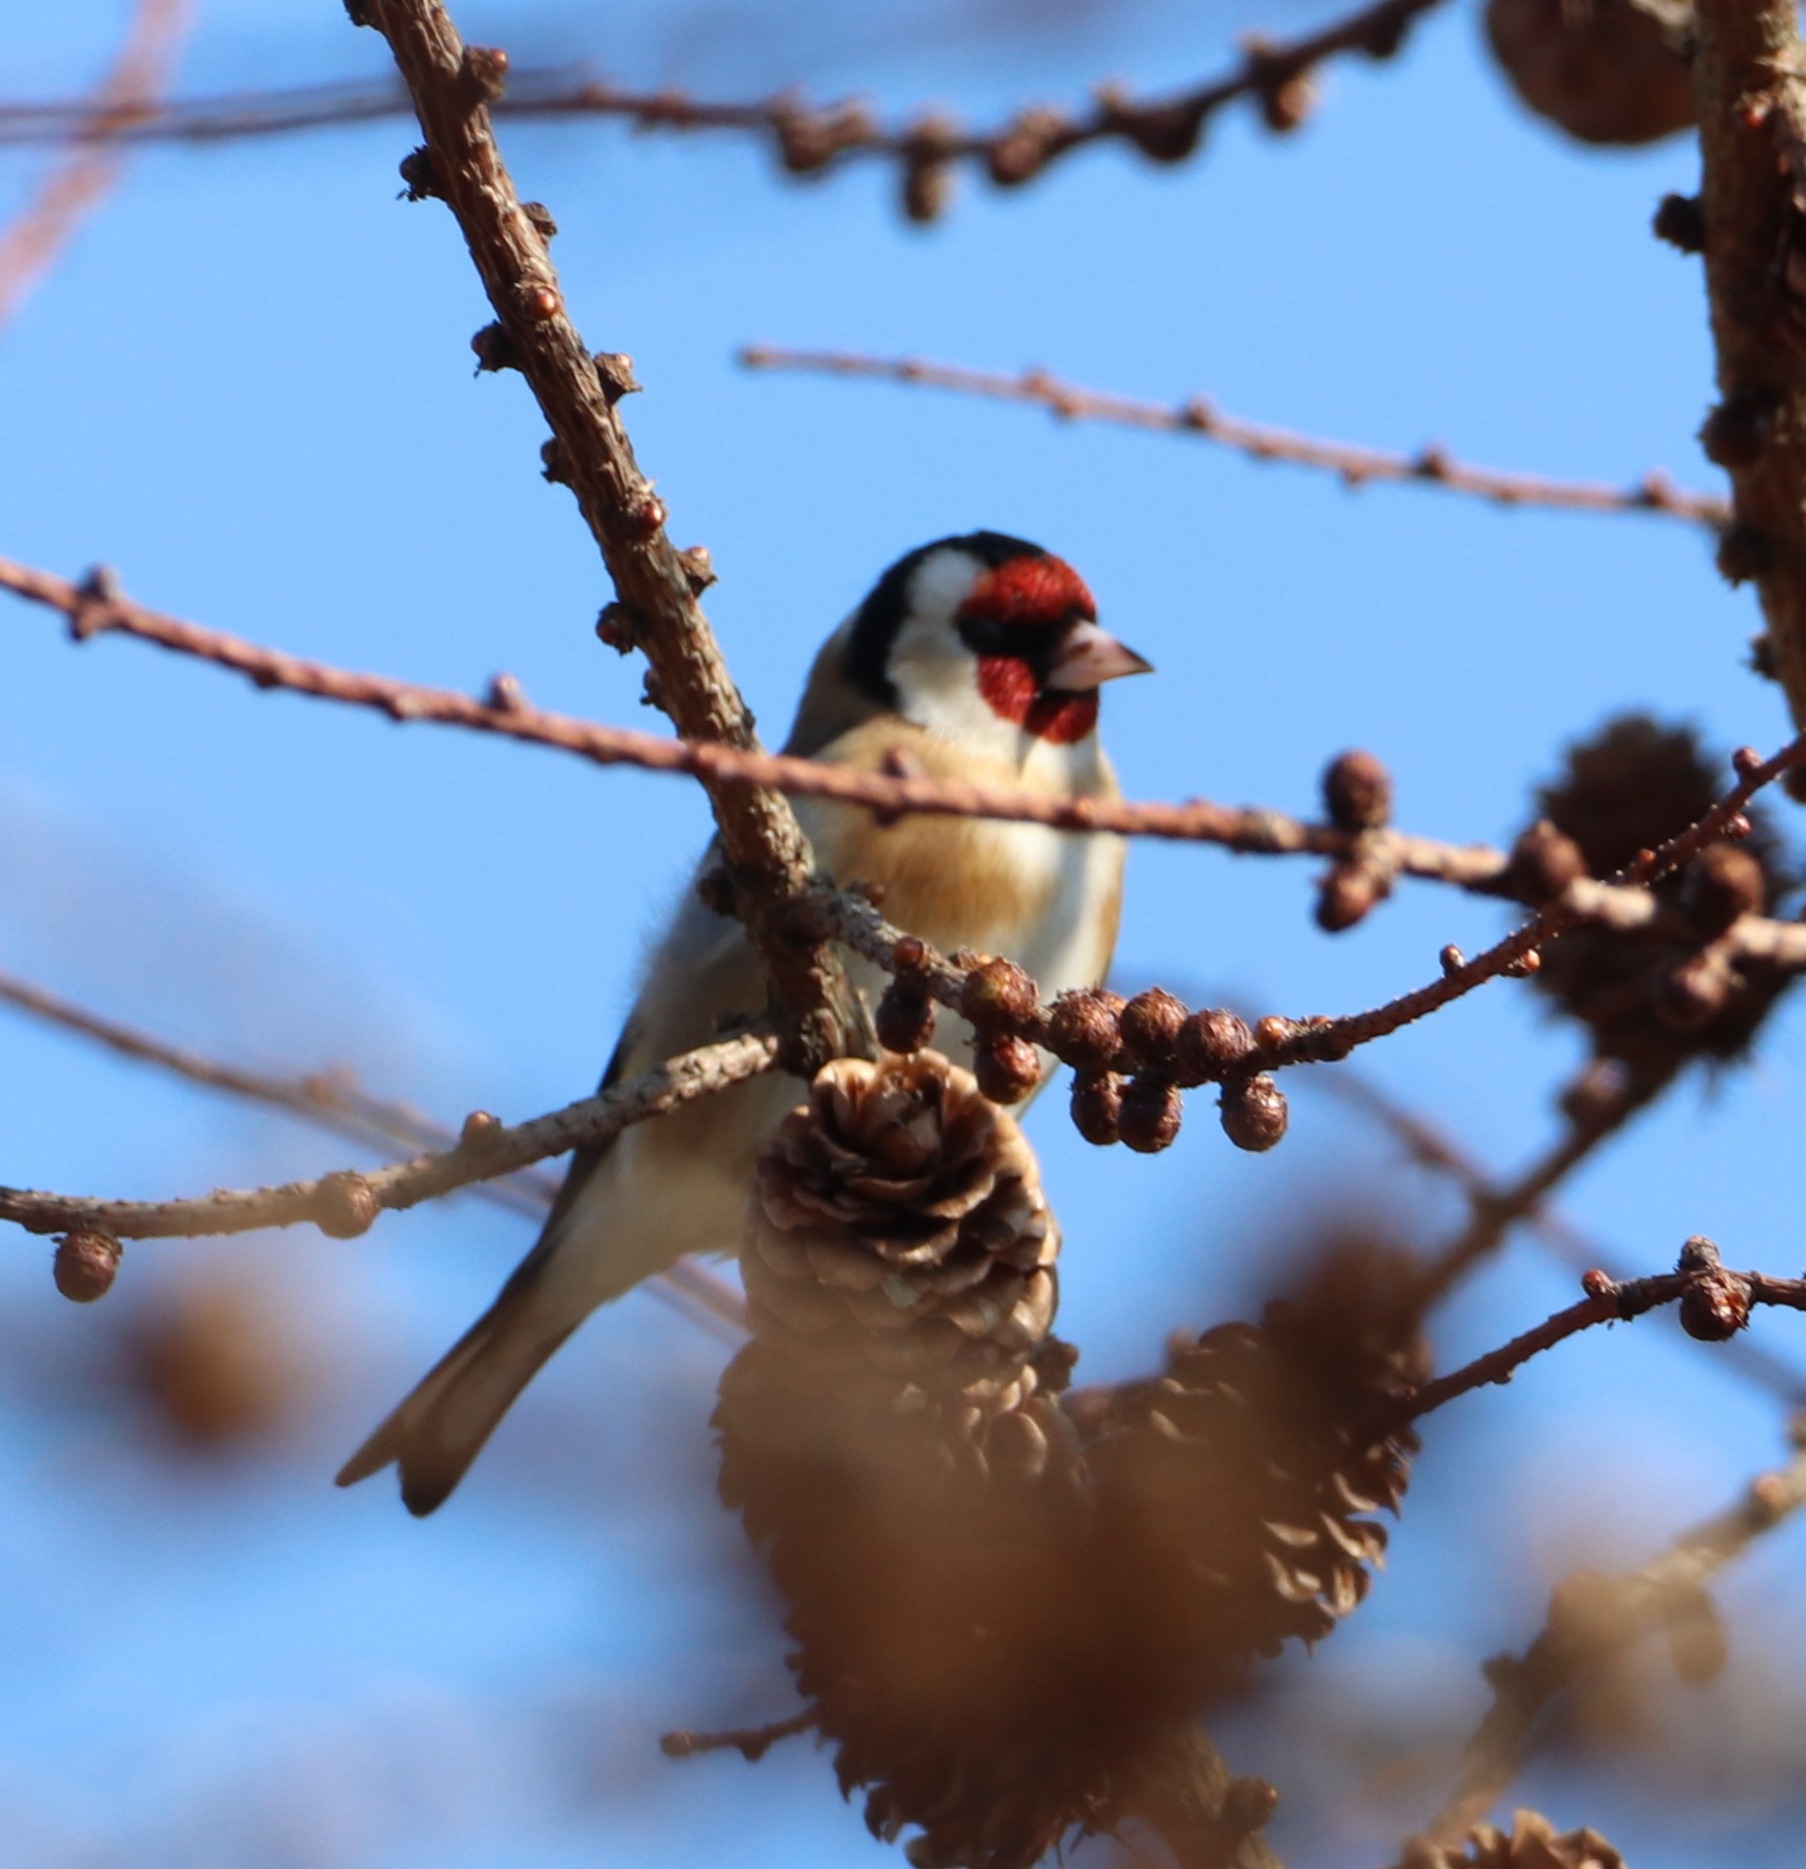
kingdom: Animalia
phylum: Chordata
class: Aves
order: Passeriformes
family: Fringillidae
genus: Carduelis
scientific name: Carduelis carduelis
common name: Stillits
